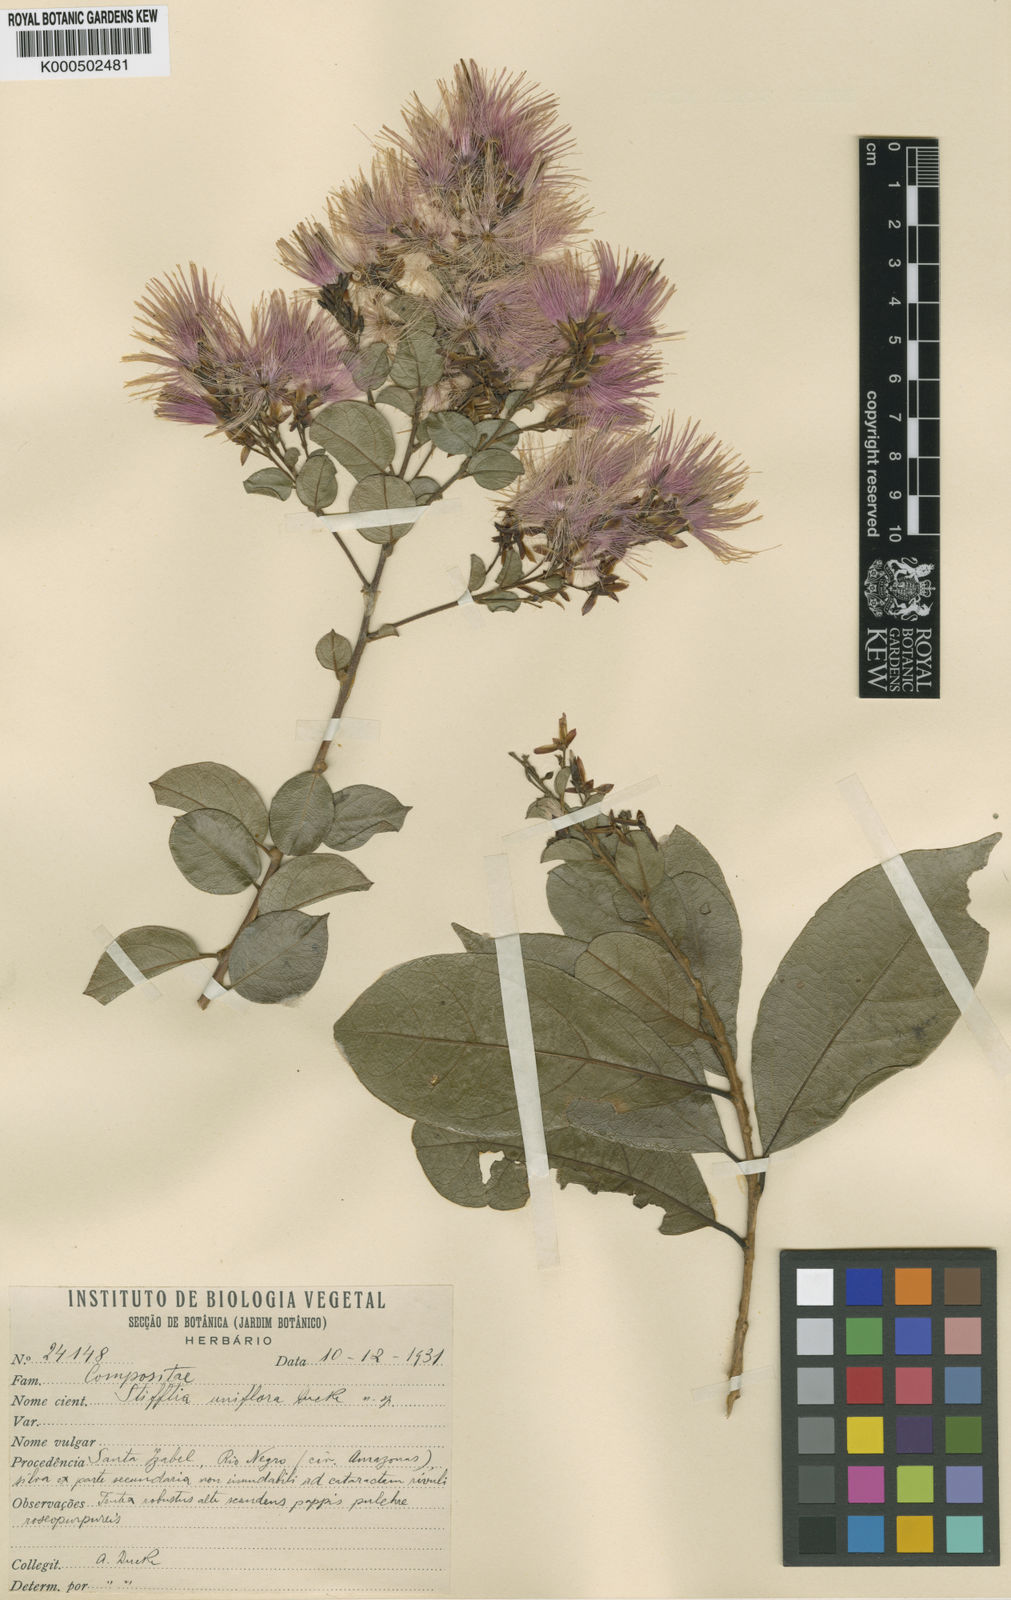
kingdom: Plantae
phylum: Tracheophyta
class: Magnoliopsida
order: Asterales
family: Asteraceae
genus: Stifftia
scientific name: Stifftia uniflora
